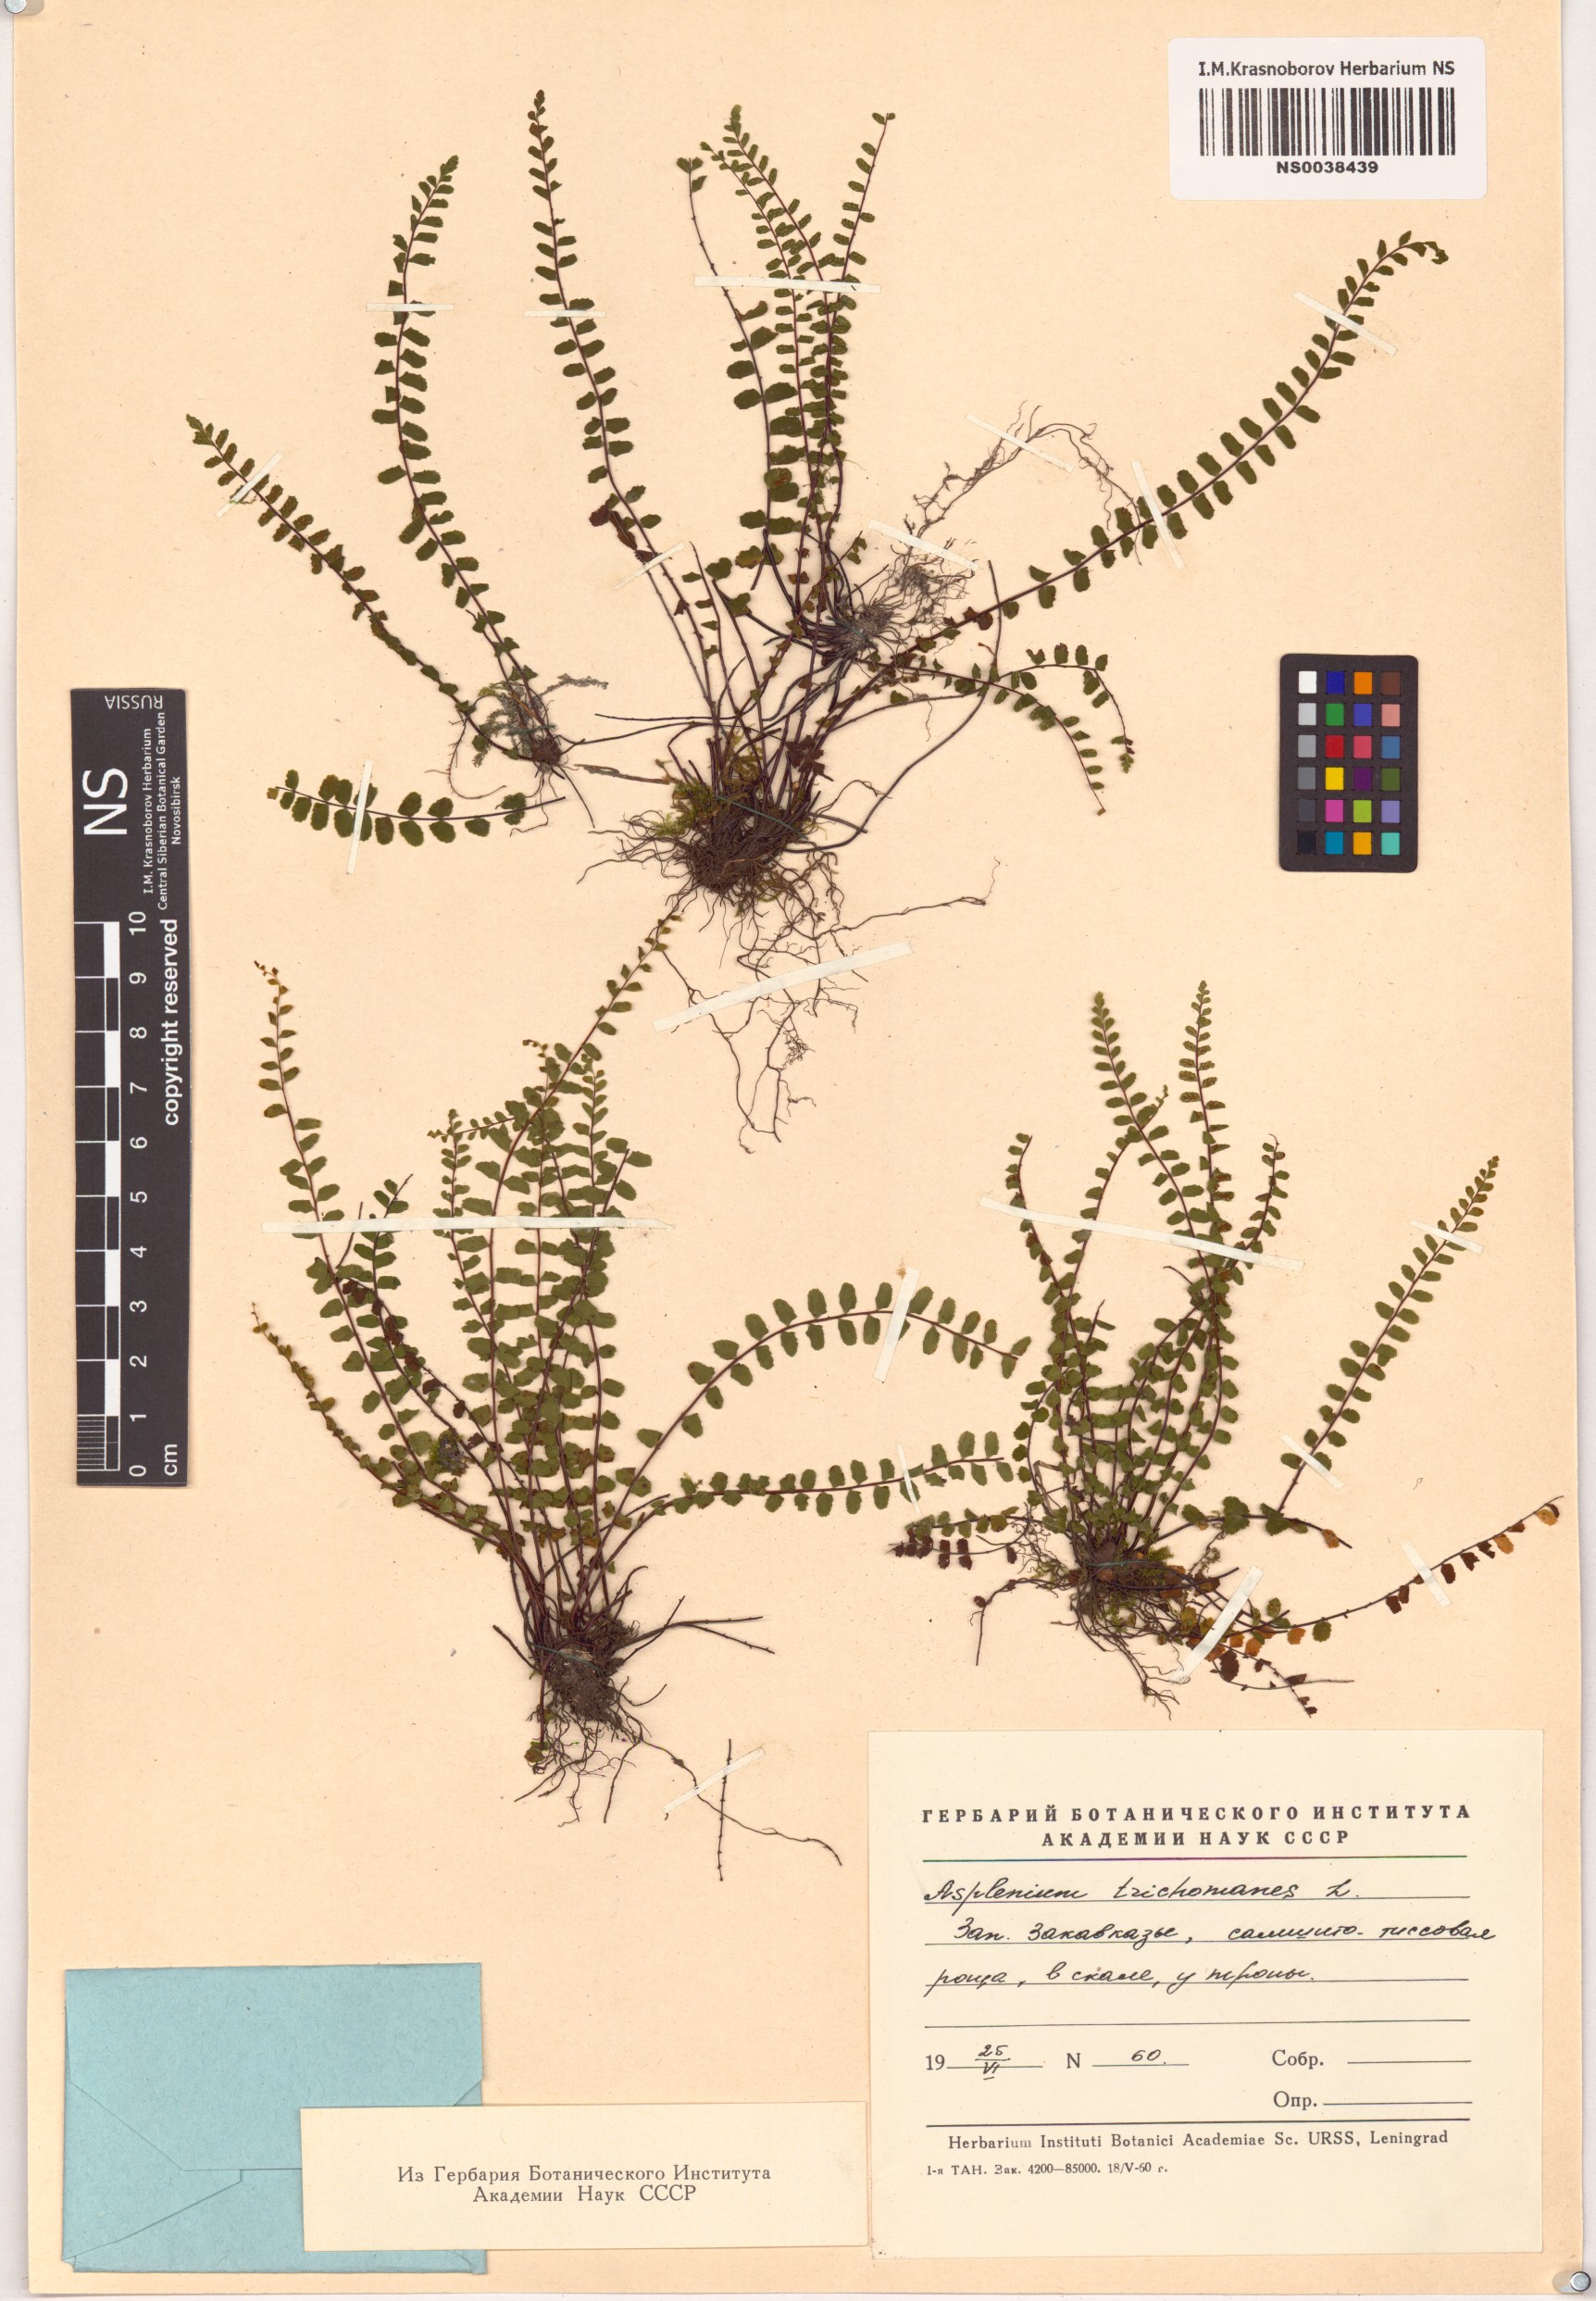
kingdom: Plantae
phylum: Tracheophyta
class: Polypodiopsida
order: Polypodiales
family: Aspleniaceae
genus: Asplenium
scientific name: Asplenium trichomanes
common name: Maidenhair spleenwort
